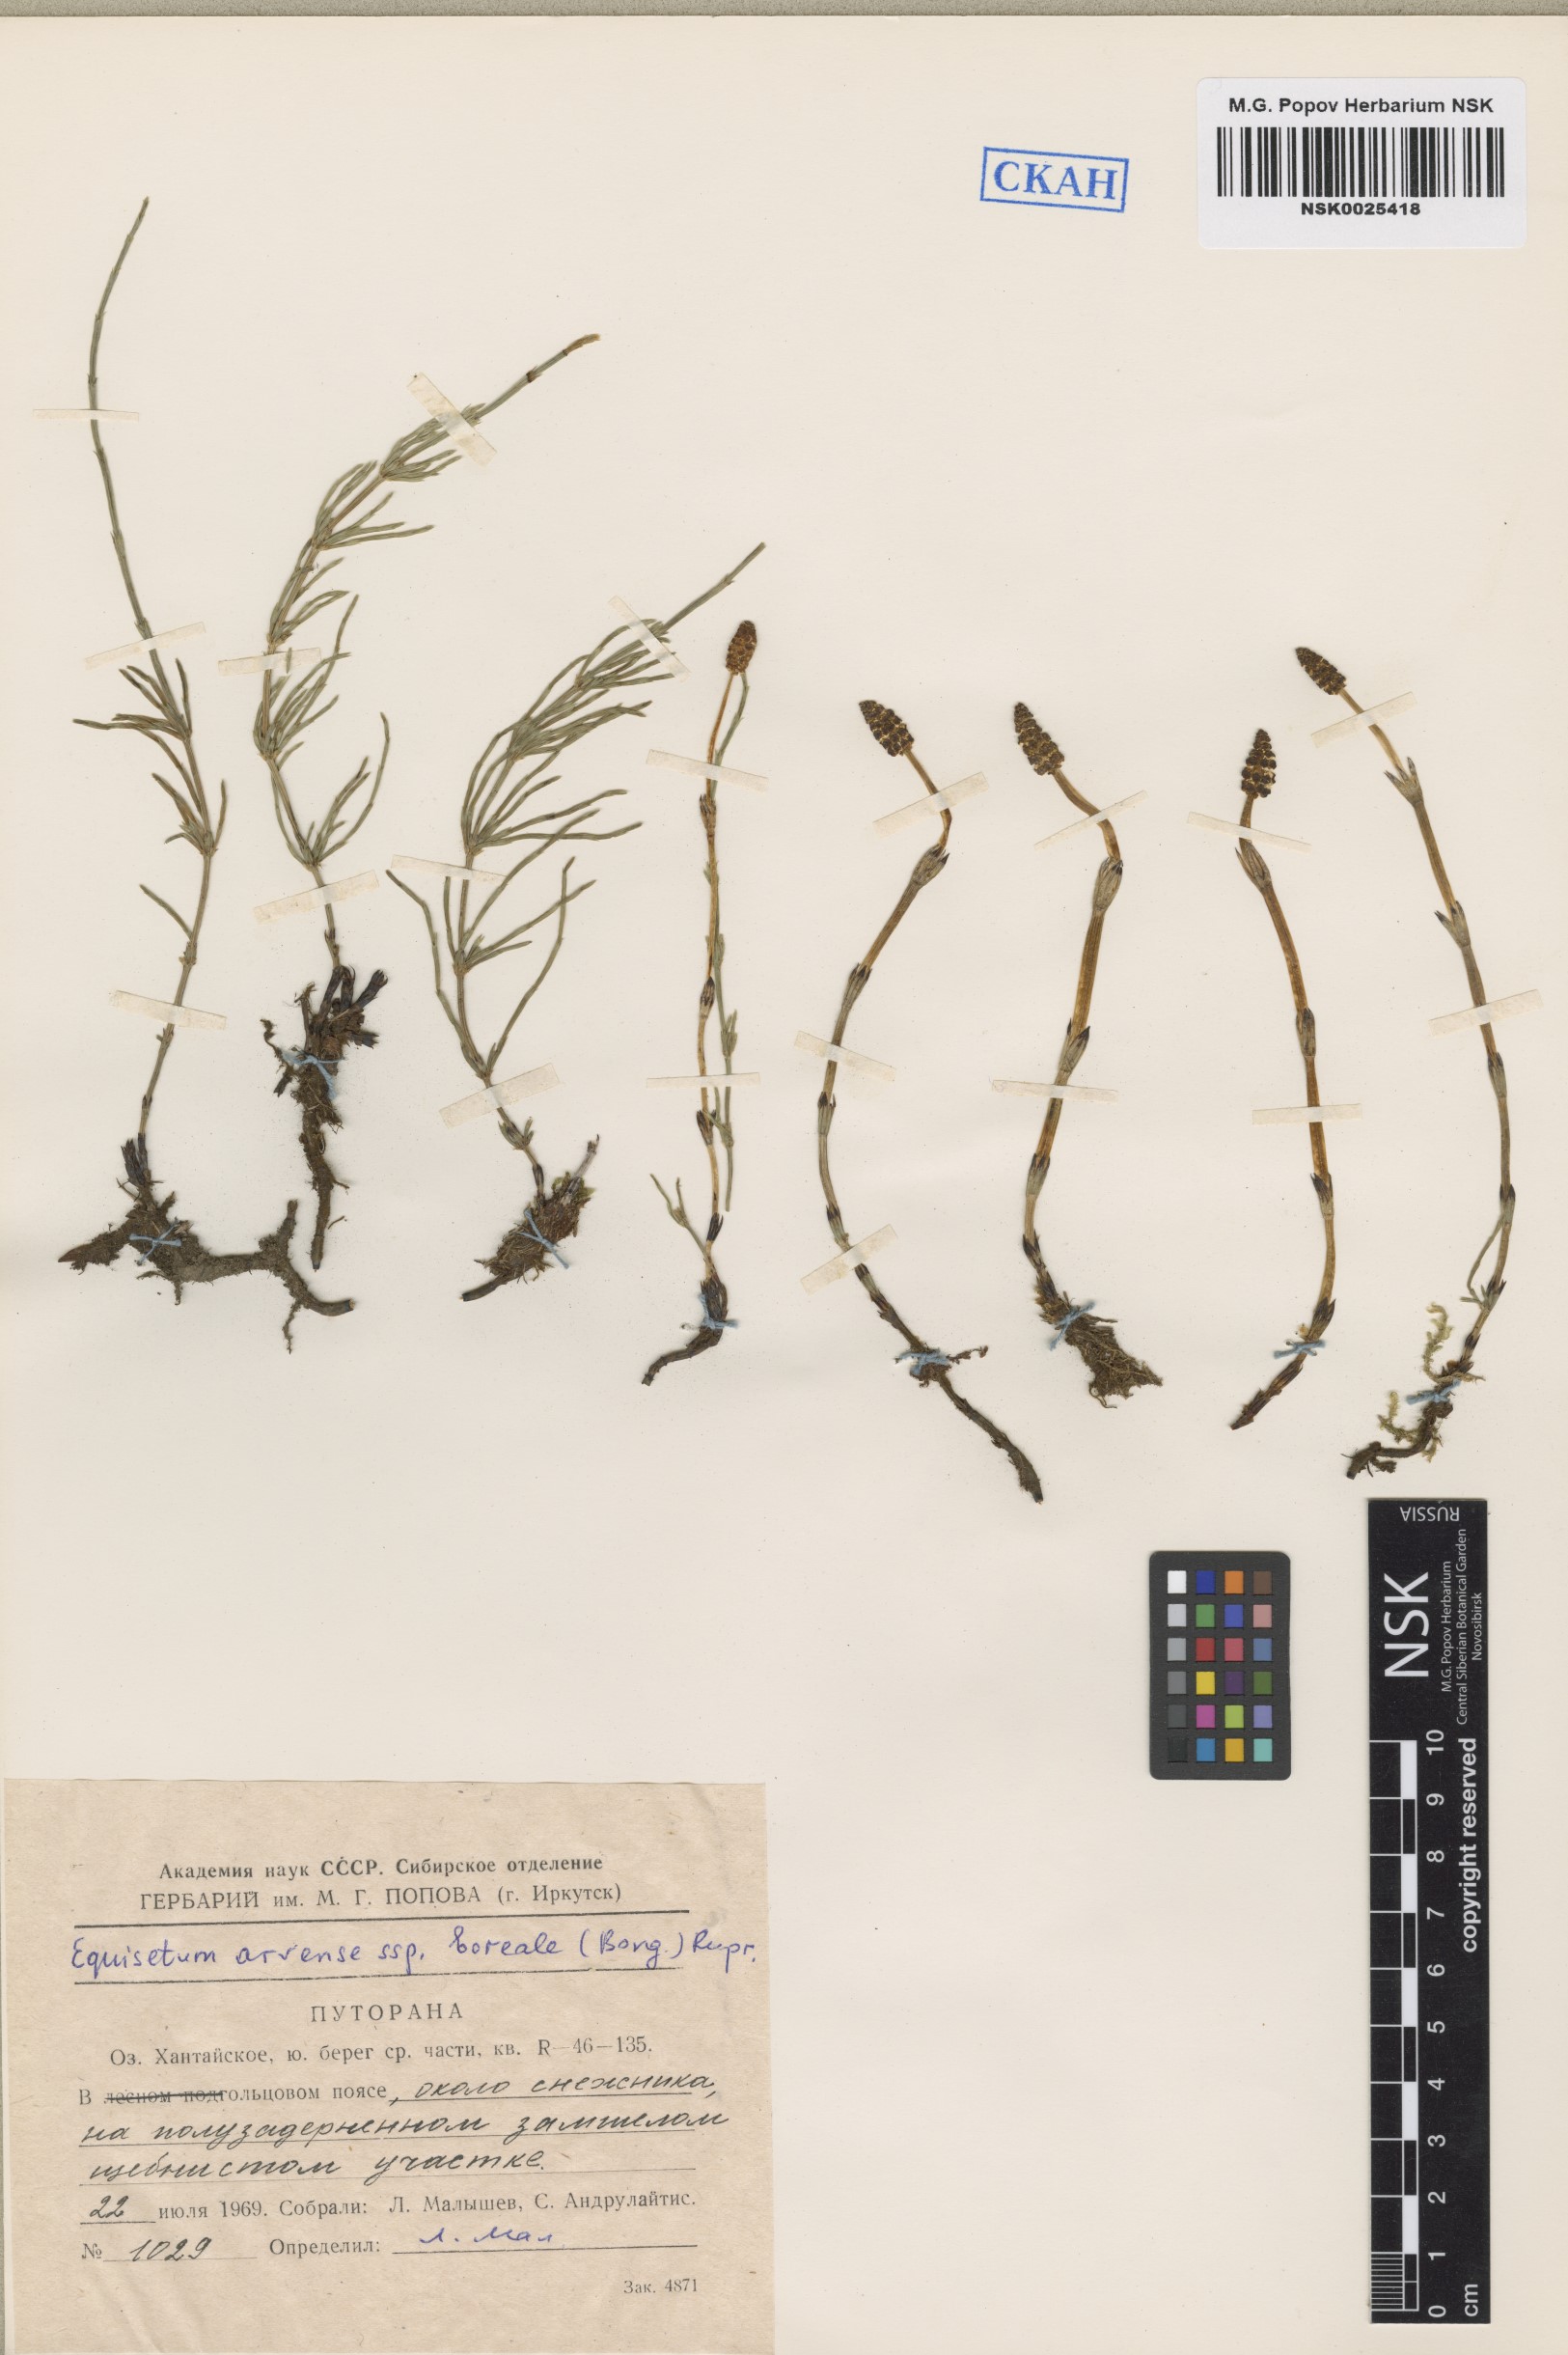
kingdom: Plantae
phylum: Tracheophyta
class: Polypodiopsida
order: Equisetales
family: Equisetaceae
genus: Equisetum
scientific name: Equisetum arvense
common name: Field horsetail
